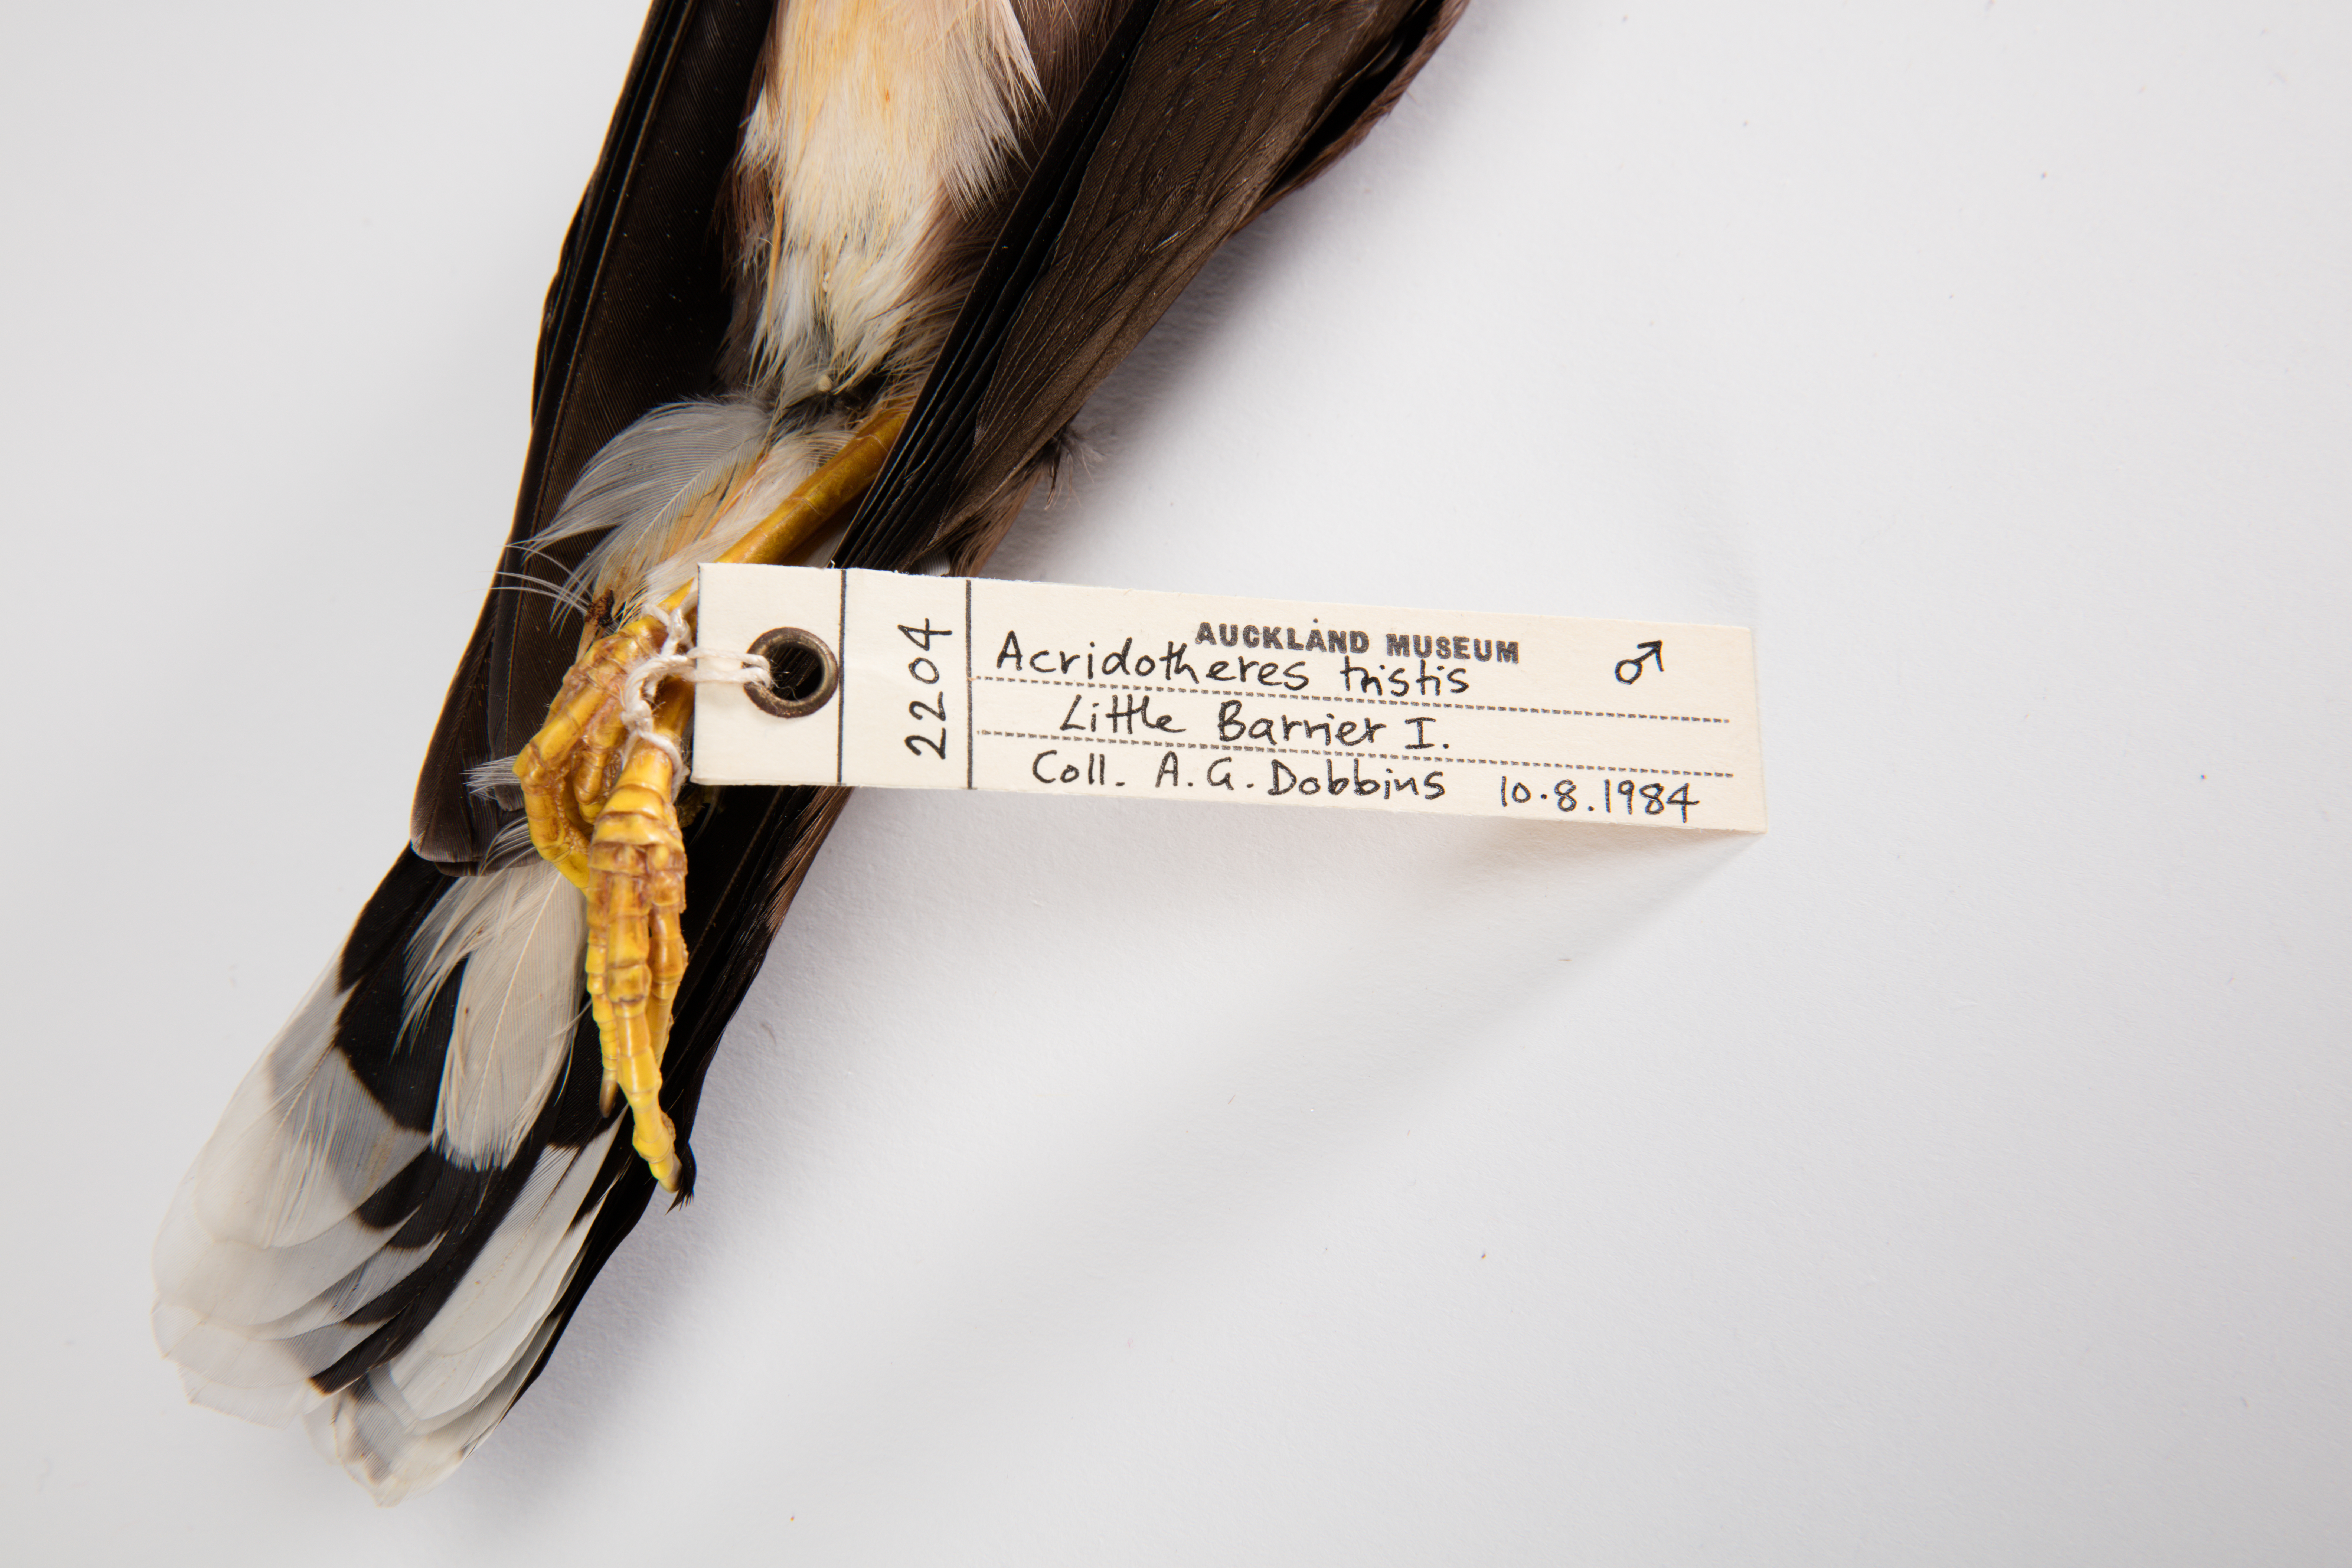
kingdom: Animalia
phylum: Chordata
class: Aves
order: Passeriformes
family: Sturnidae
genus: Acridotheres
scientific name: Acridotheres tristis
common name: Common myna
